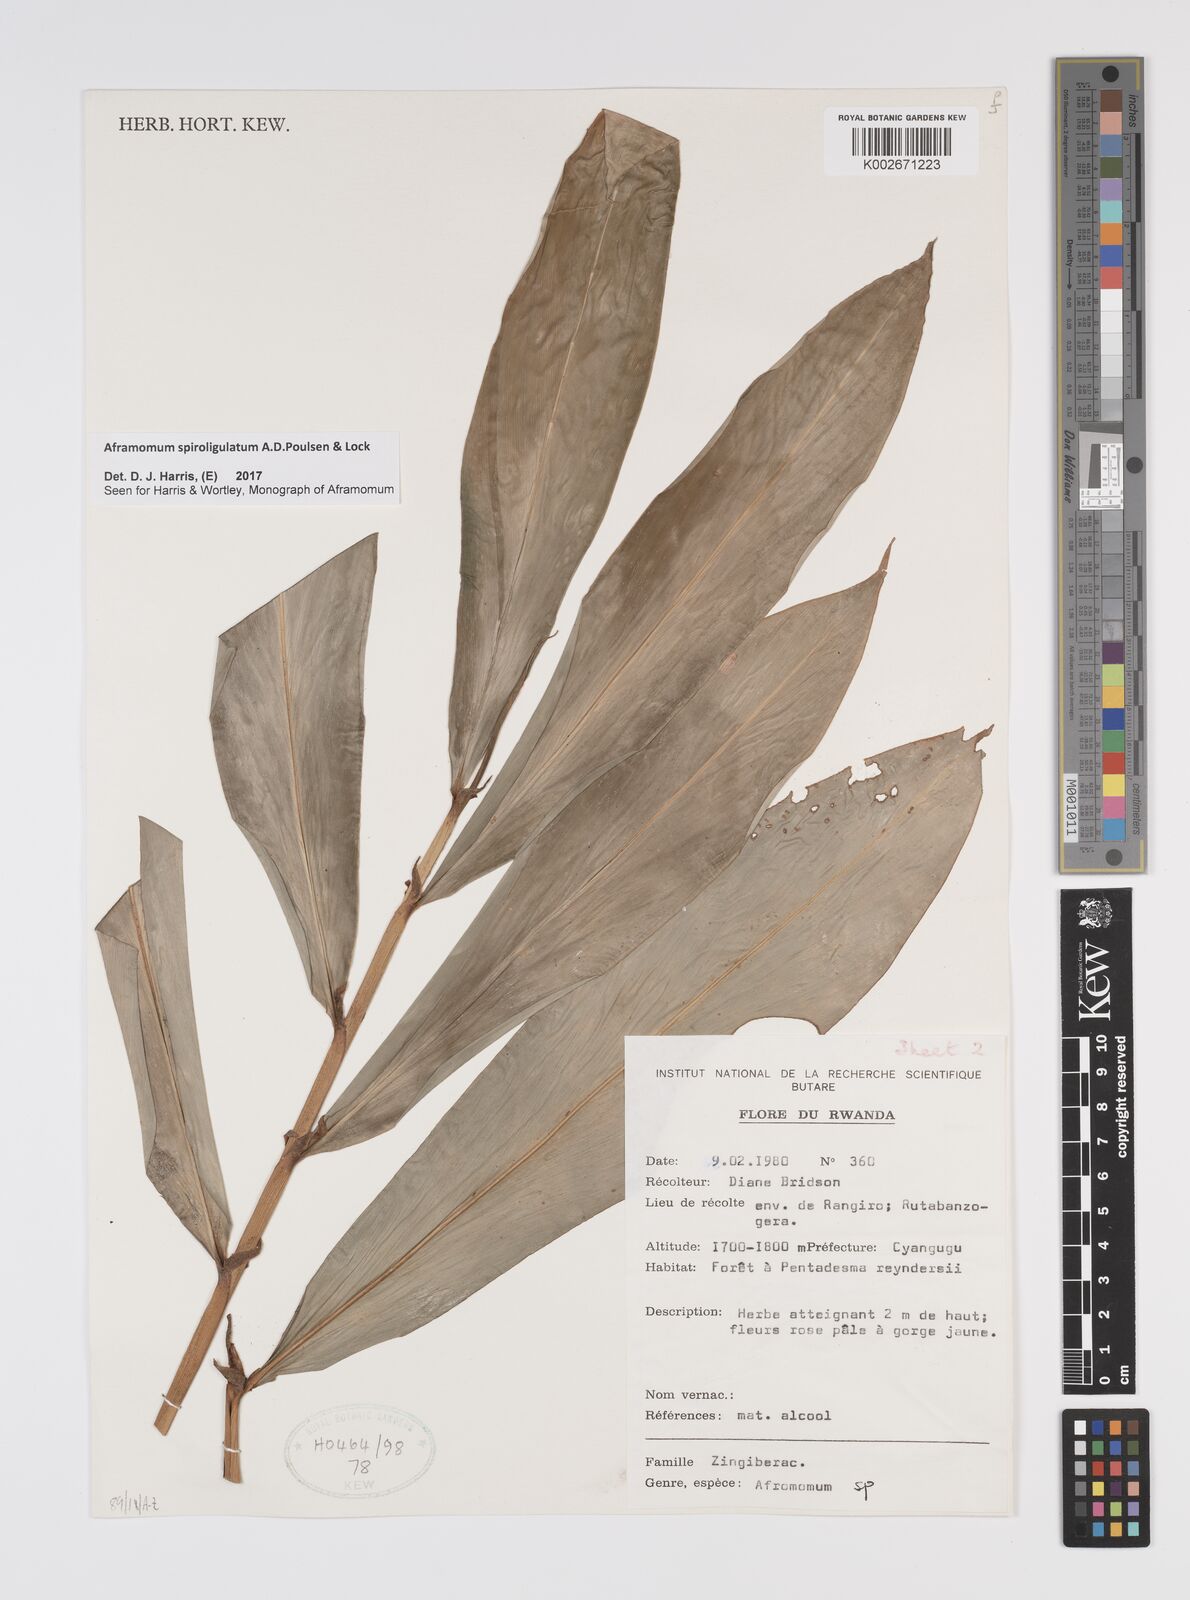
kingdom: Plantae
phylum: Tracheophyta
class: Liliopsida
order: Zingiberales
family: Zingiberaceae
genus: Aframomum
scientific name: Aframomum spiroligulatum
